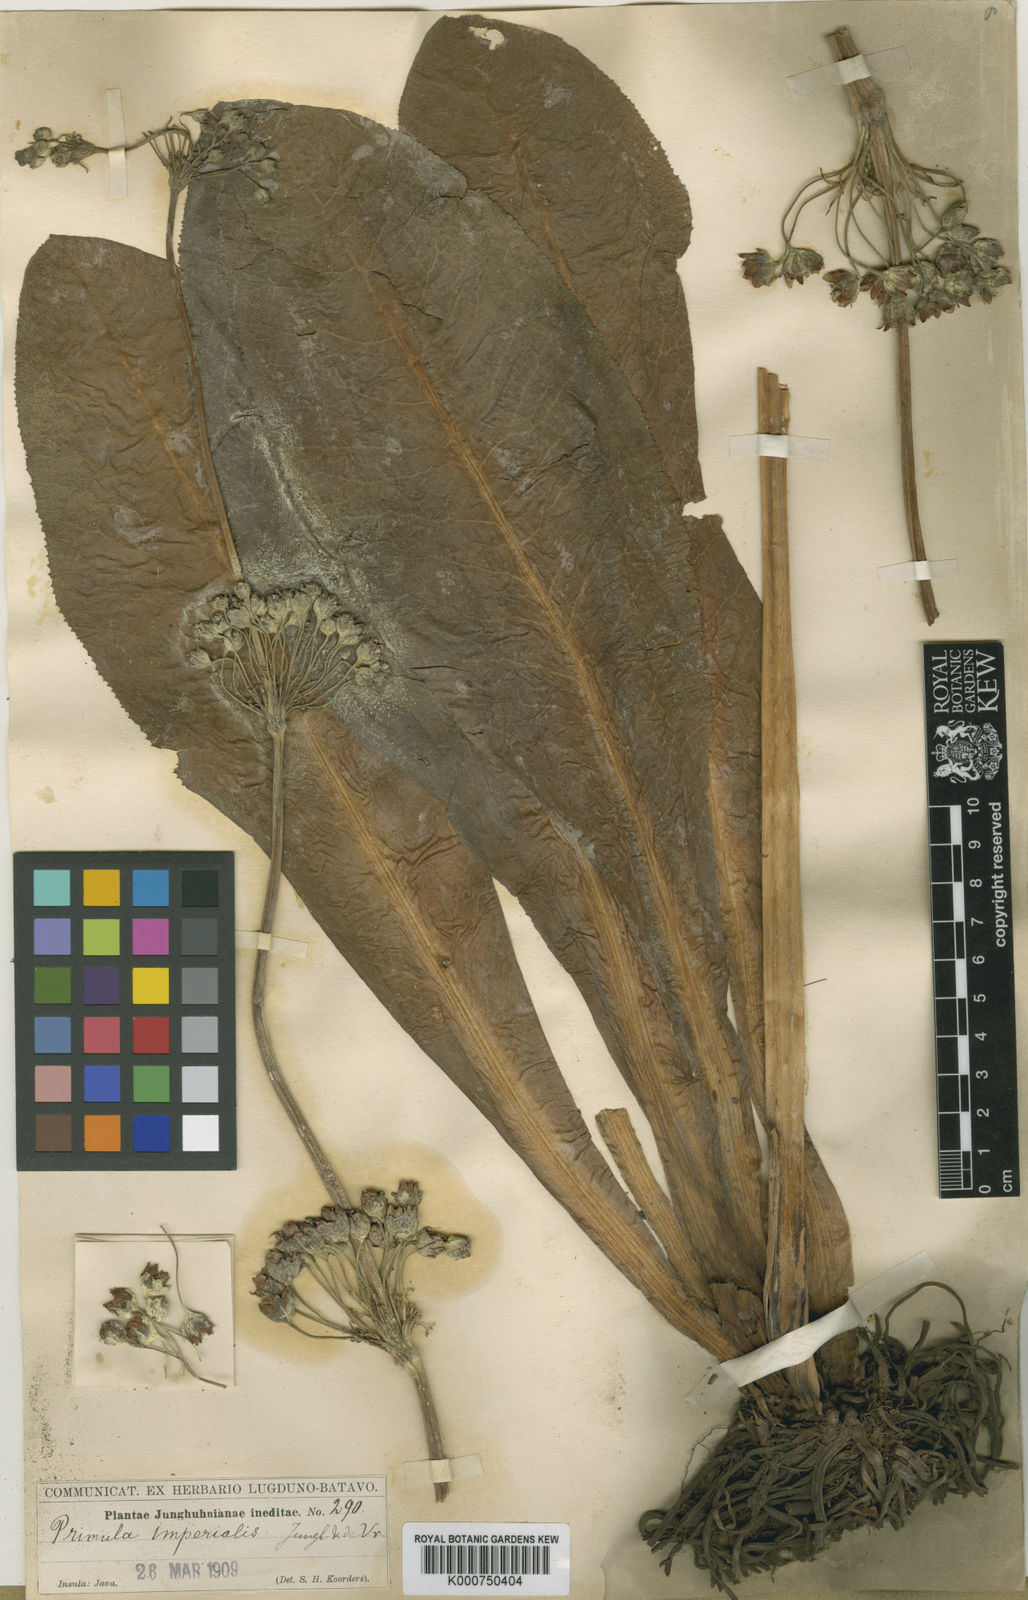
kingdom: Plantae
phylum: Tracheophyta
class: Magnoliopsida
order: Ericales
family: Primulaceae
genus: Primula
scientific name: Primula prolifera
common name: Glory-of-the-marsh
